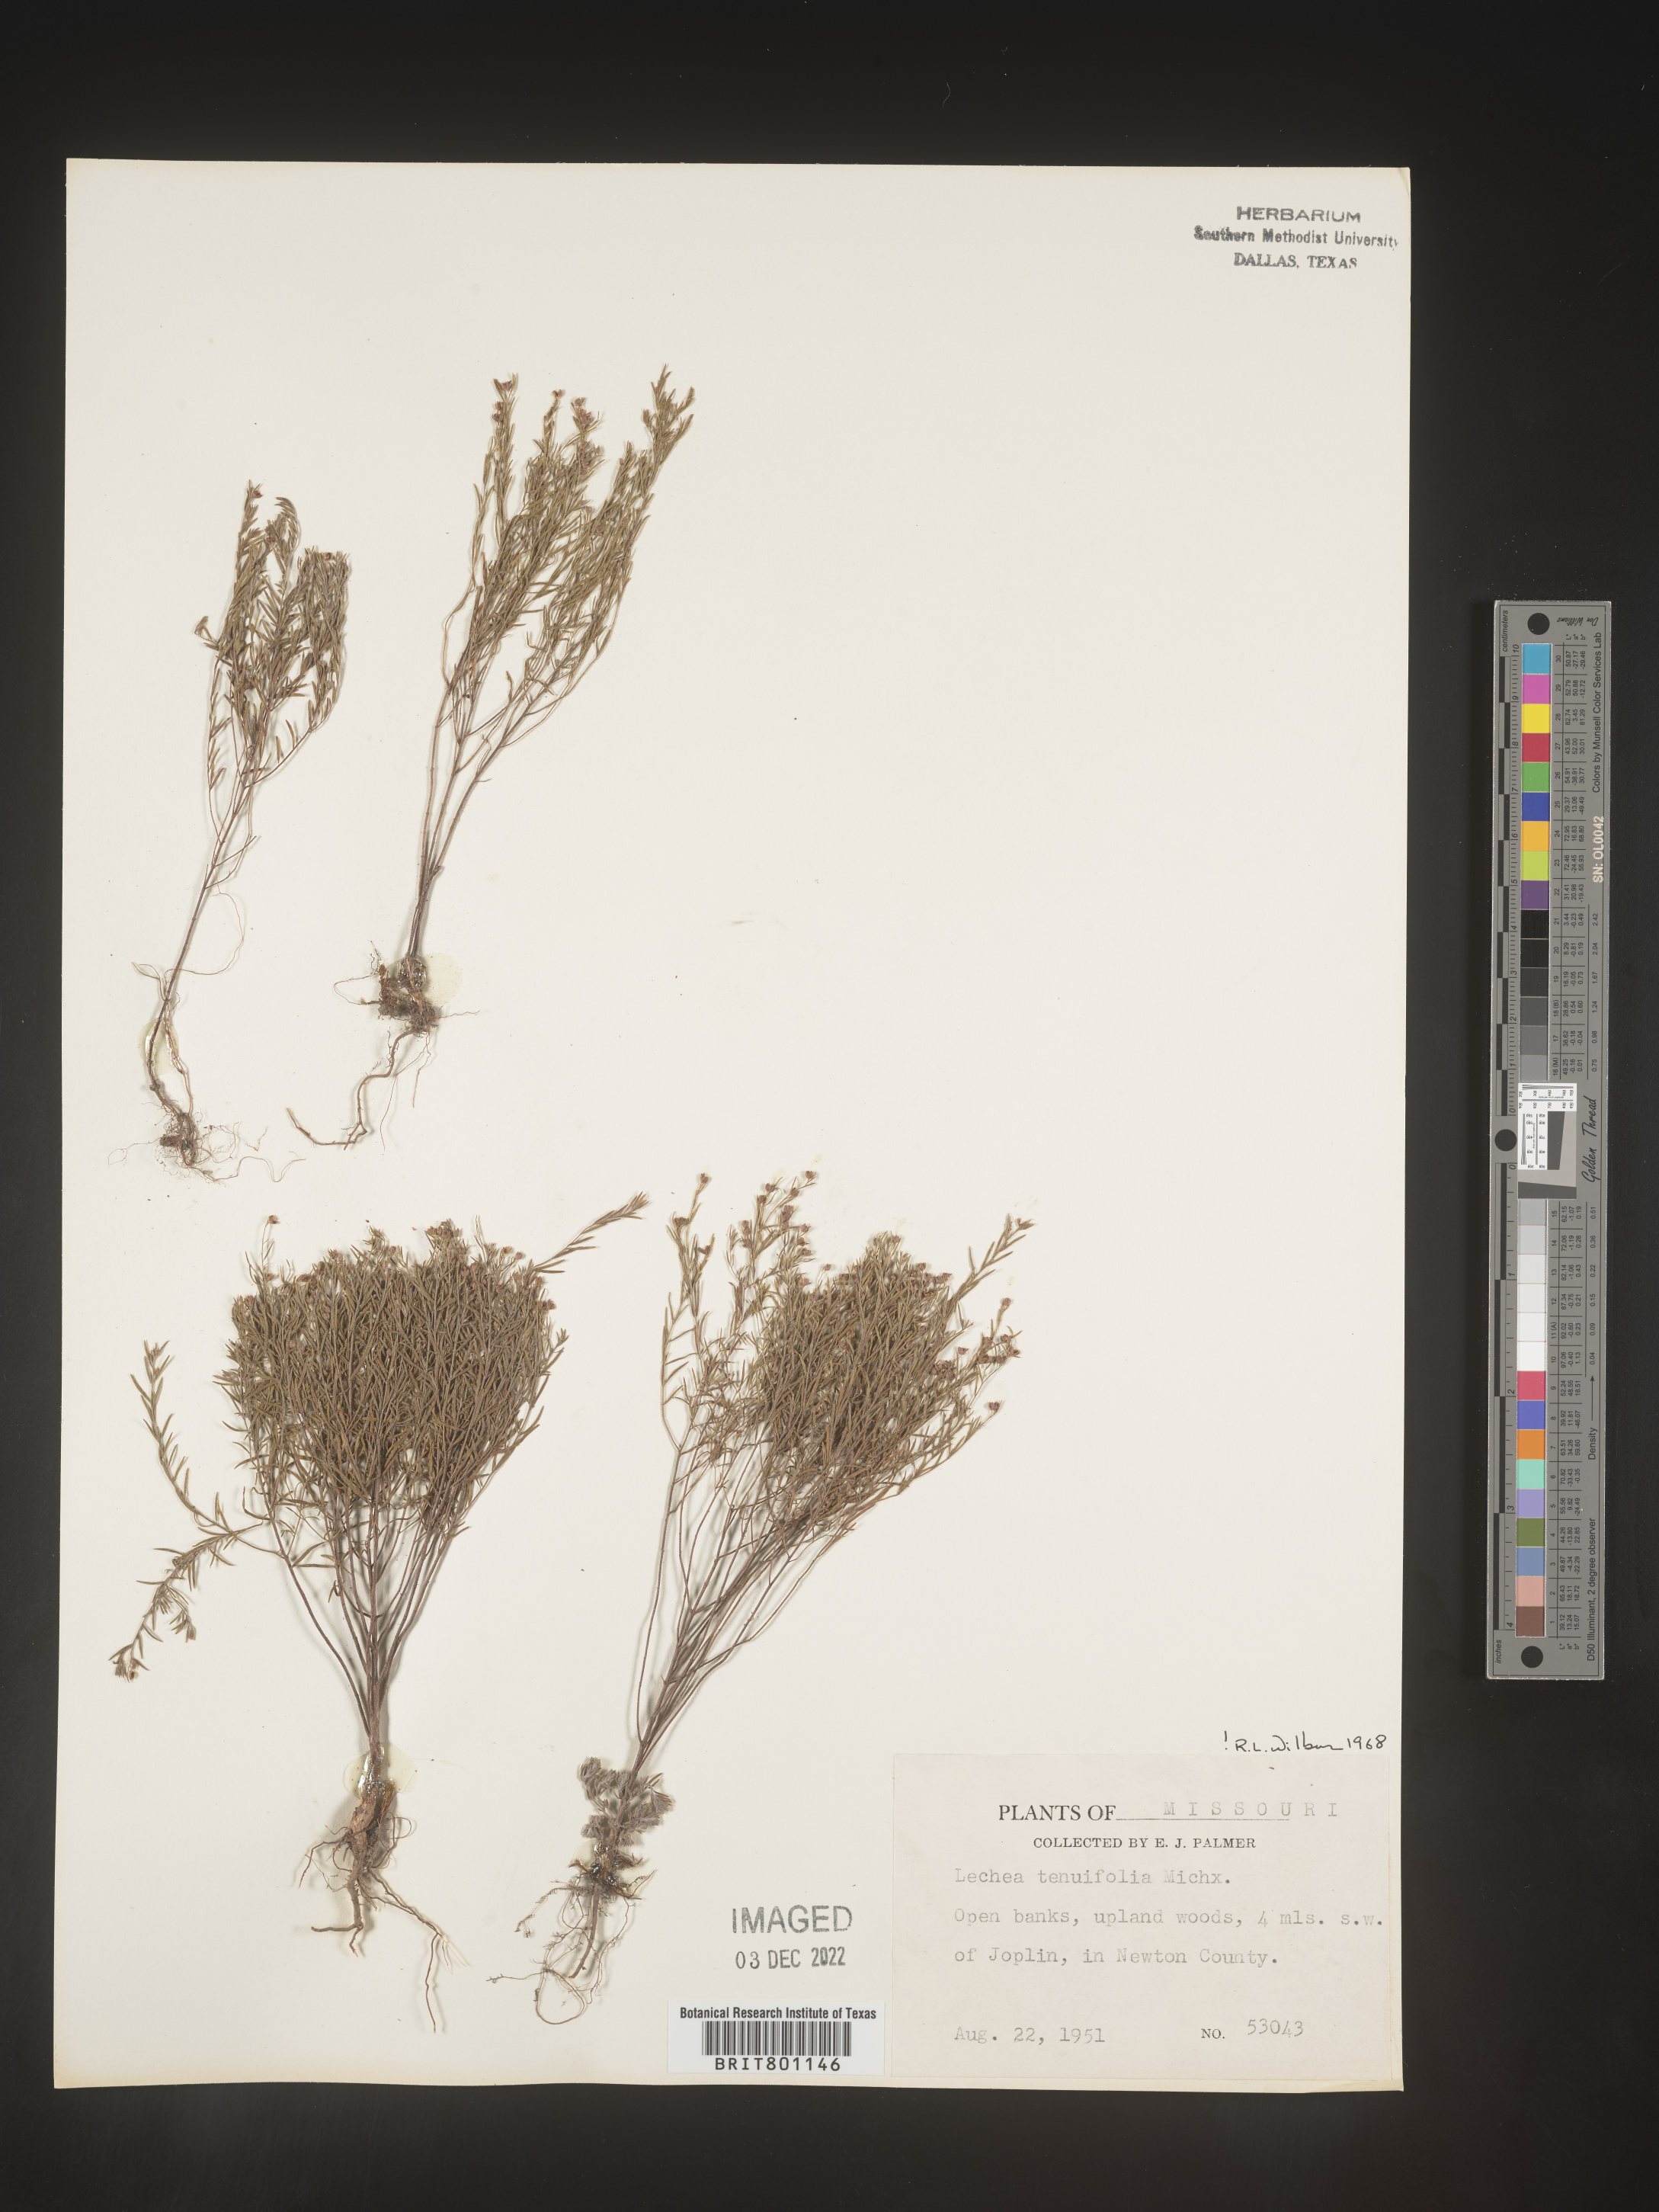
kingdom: Plantae
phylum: Tracheophyta
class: Magnoliopsida
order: Malvales
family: Cistaceae
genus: Lechea
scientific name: Lechea tenuifolia
